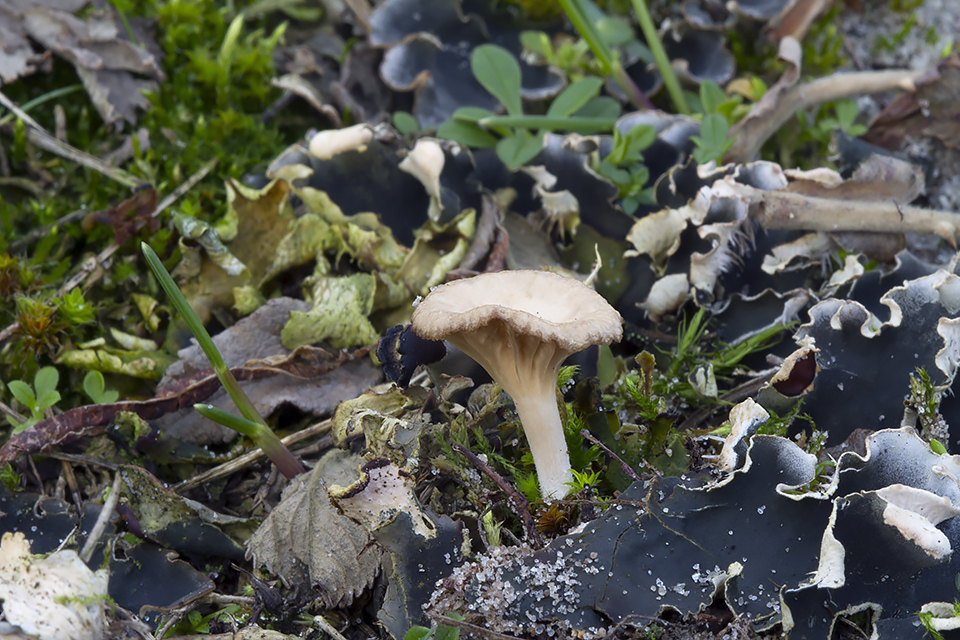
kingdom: Fungi
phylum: Basidiomycota
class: Agaricomycetes
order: Agaricales
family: Hygrophoraceae
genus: Arrhenia
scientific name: Arrhenia peltigerina
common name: skjoldlav-fontænehat
